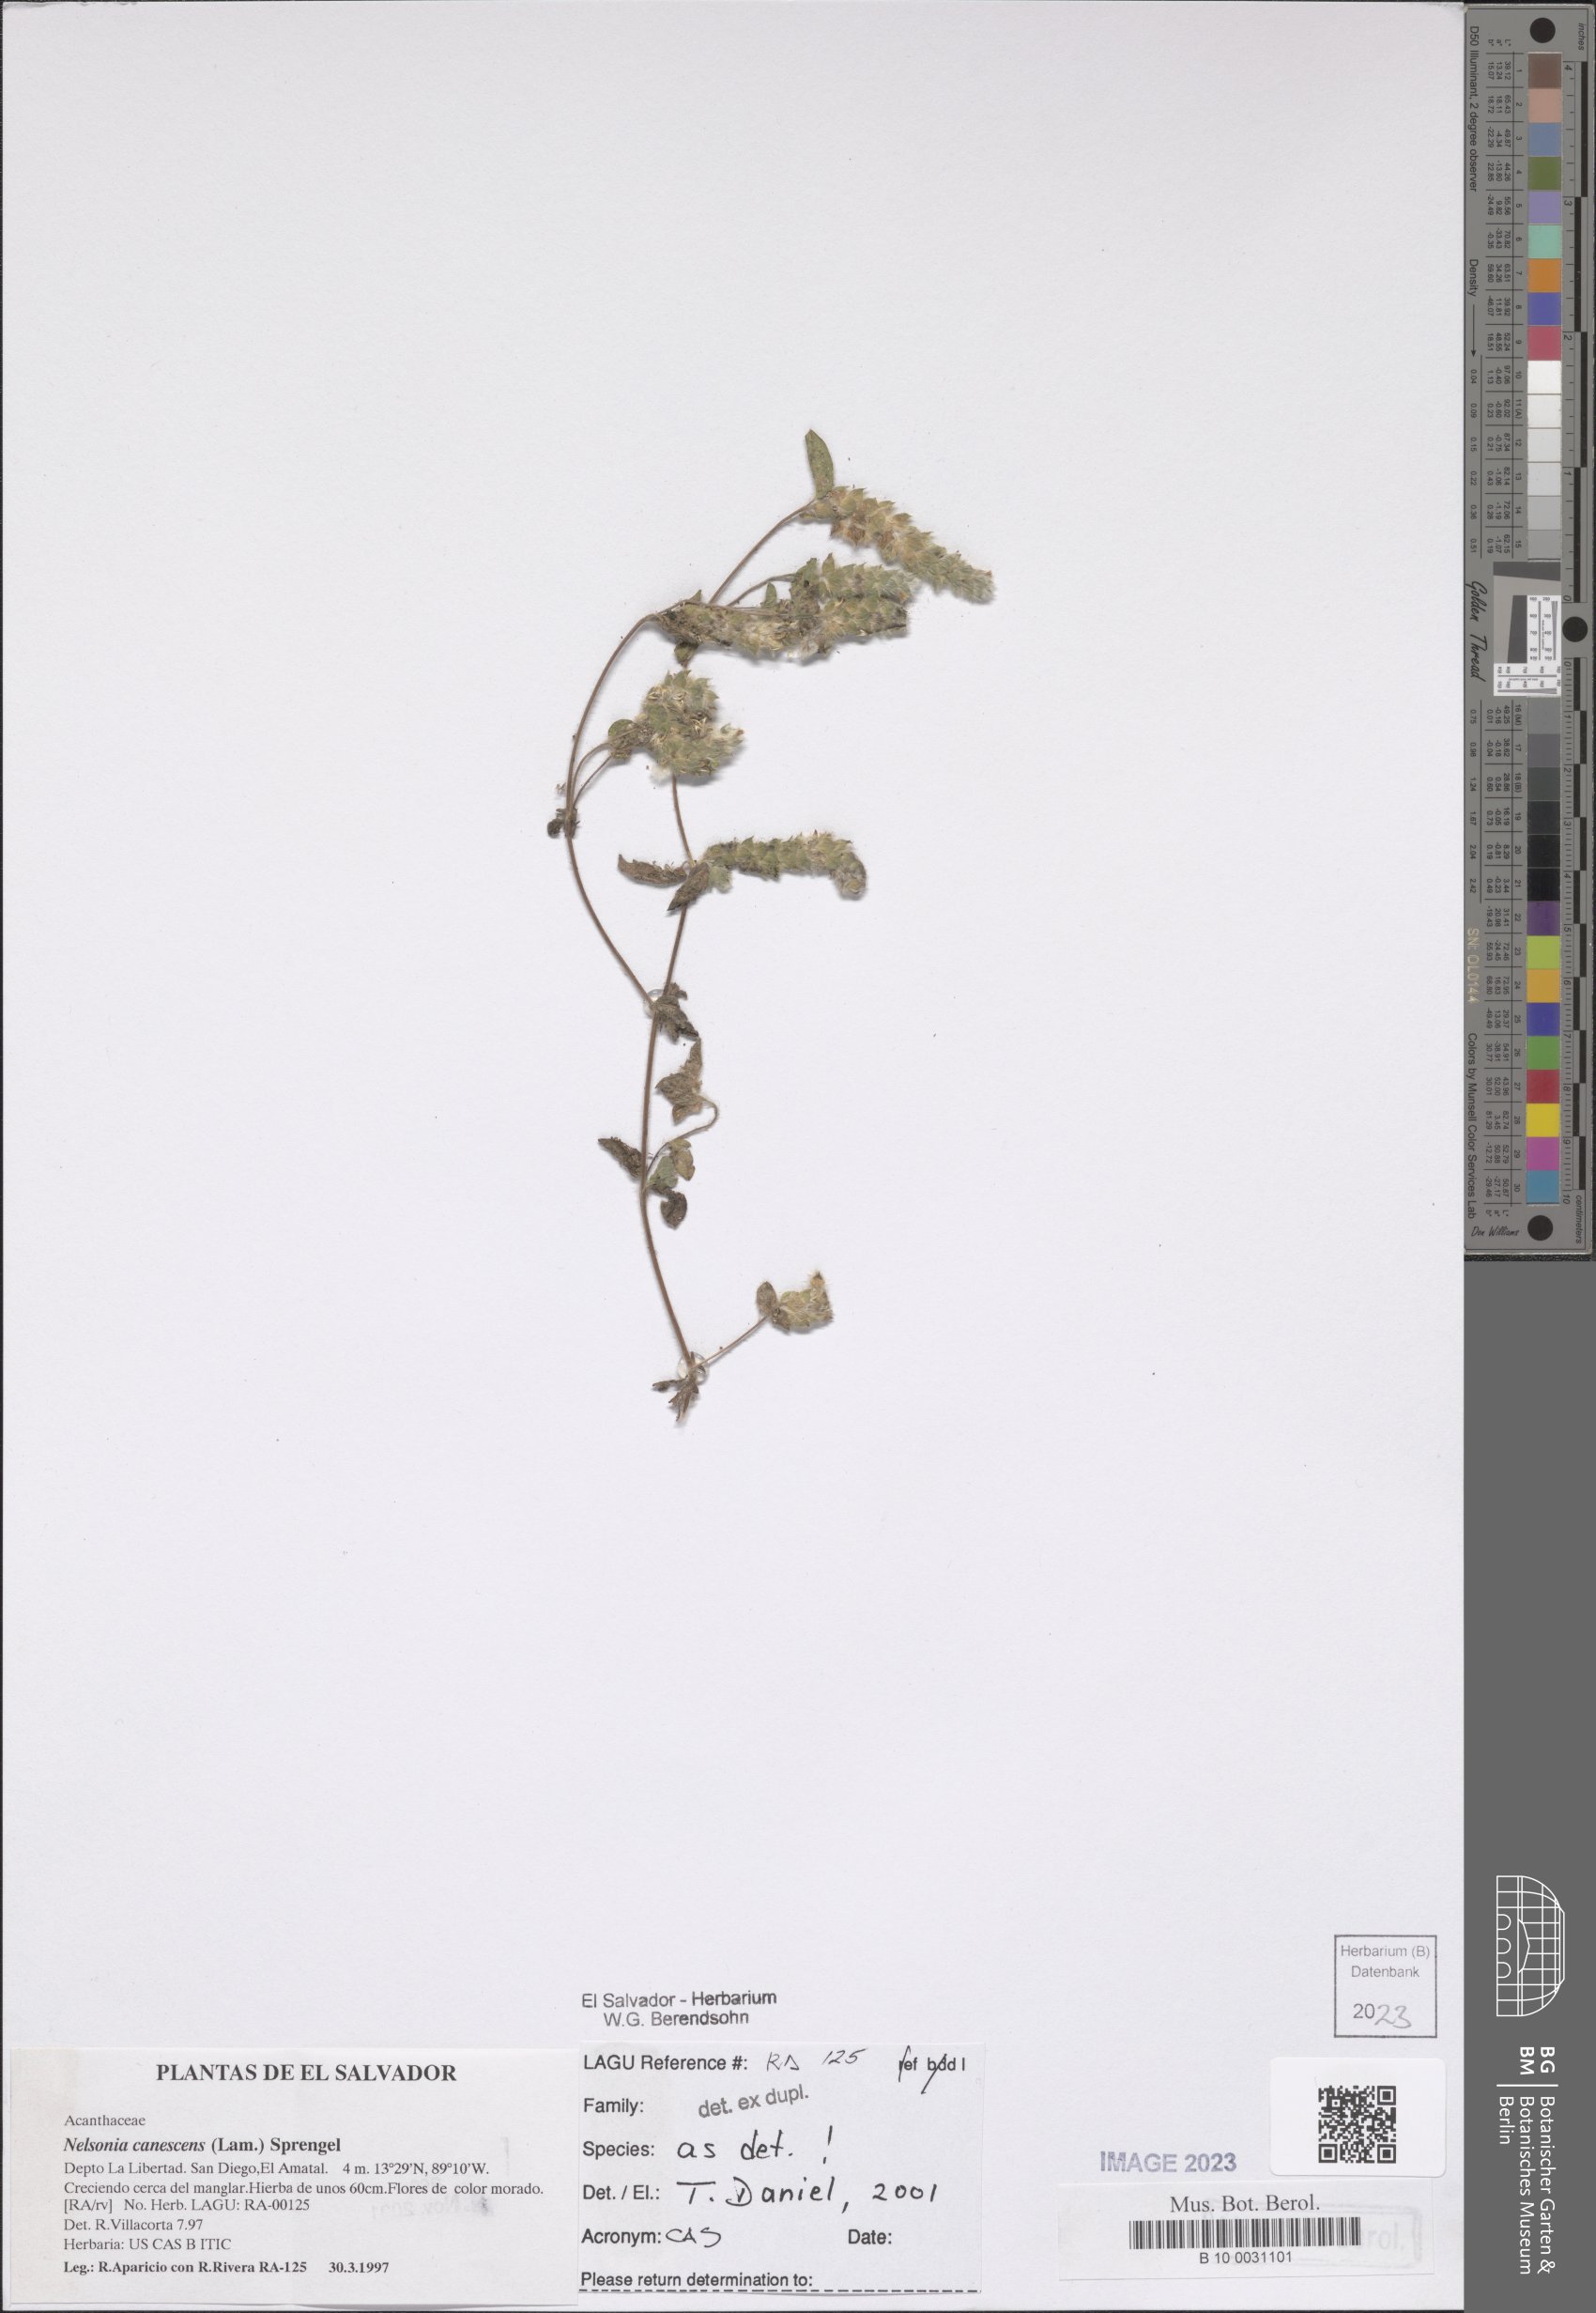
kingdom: Plantae
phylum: Tracheophyta
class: Magnoliopsida
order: Lamiales
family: Acanthaceae
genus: Nelsonia
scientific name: Nelsonia canescens
